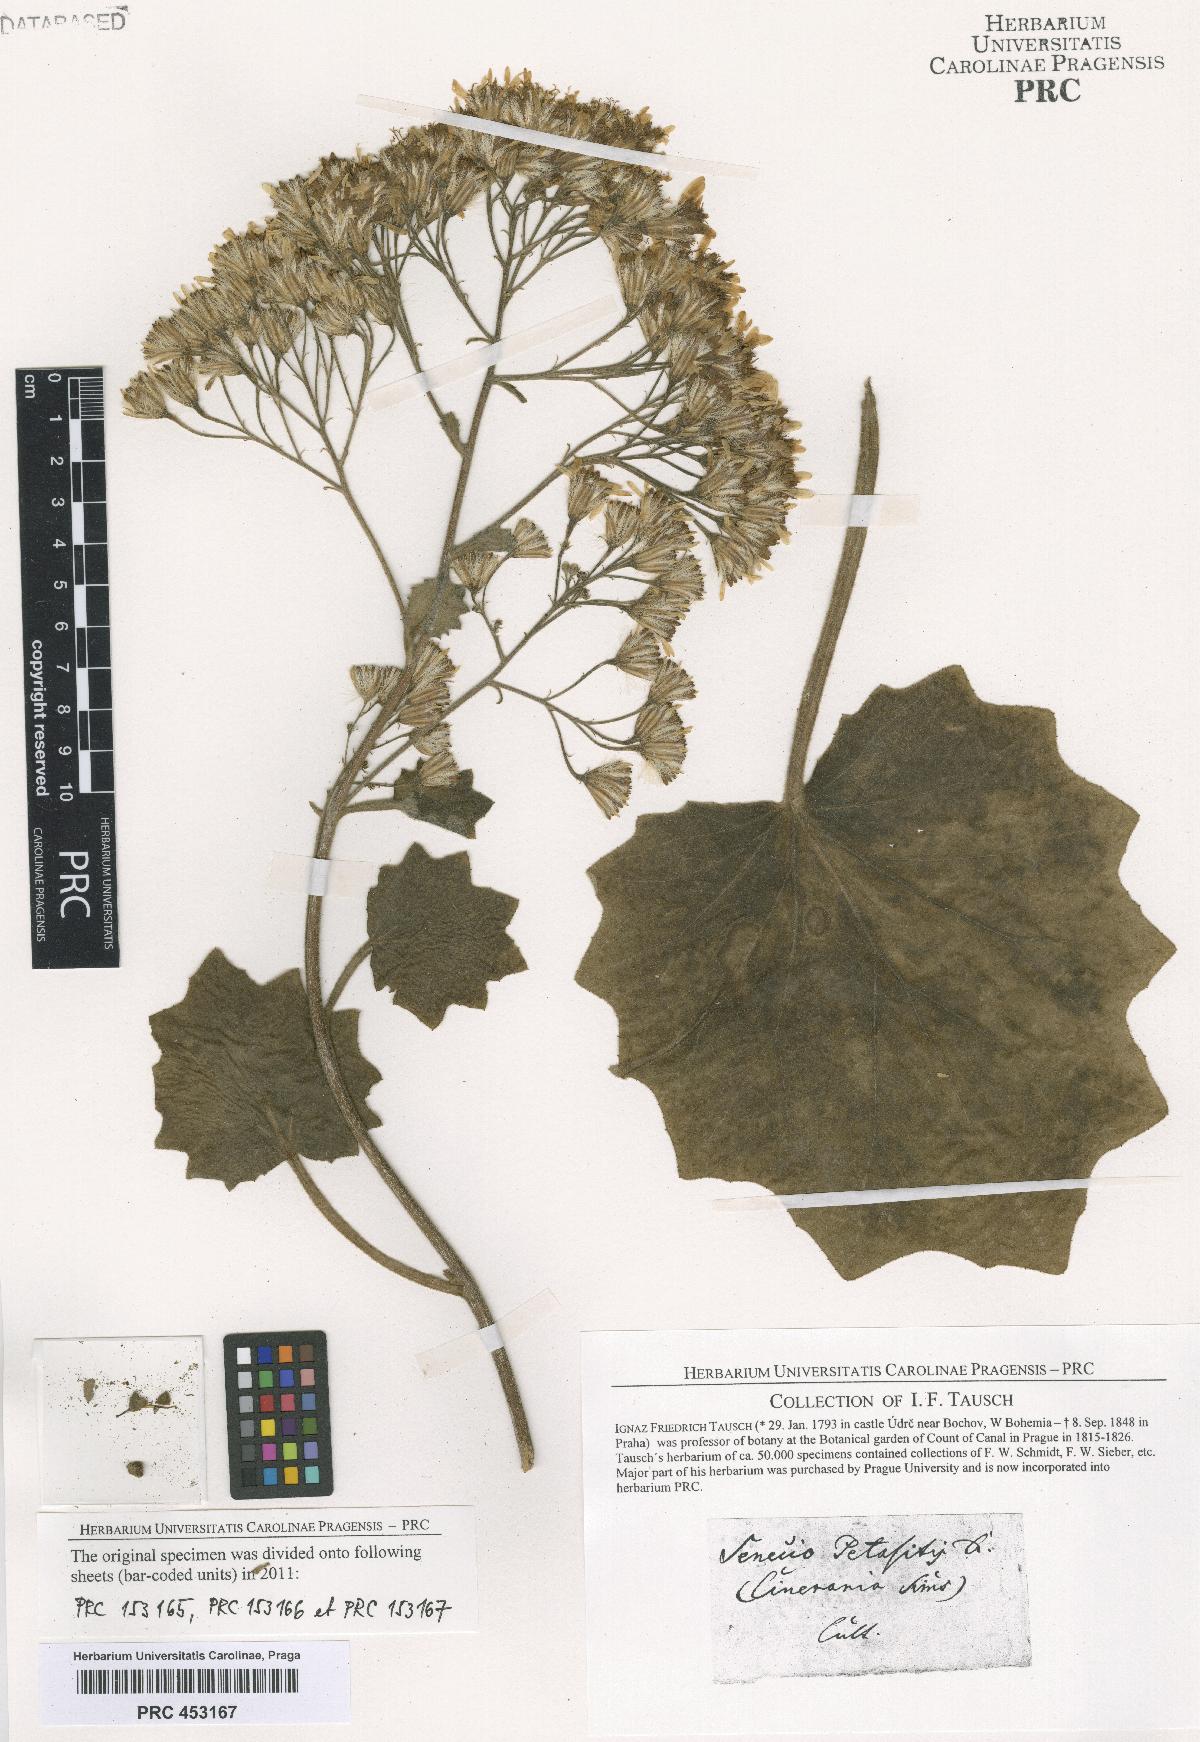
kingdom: Plantae
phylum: Tracheophyta
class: Magnoliopsida
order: Asterales
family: Asteraceae
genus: Roldana
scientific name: Roldana petasitis
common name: California-geranium
